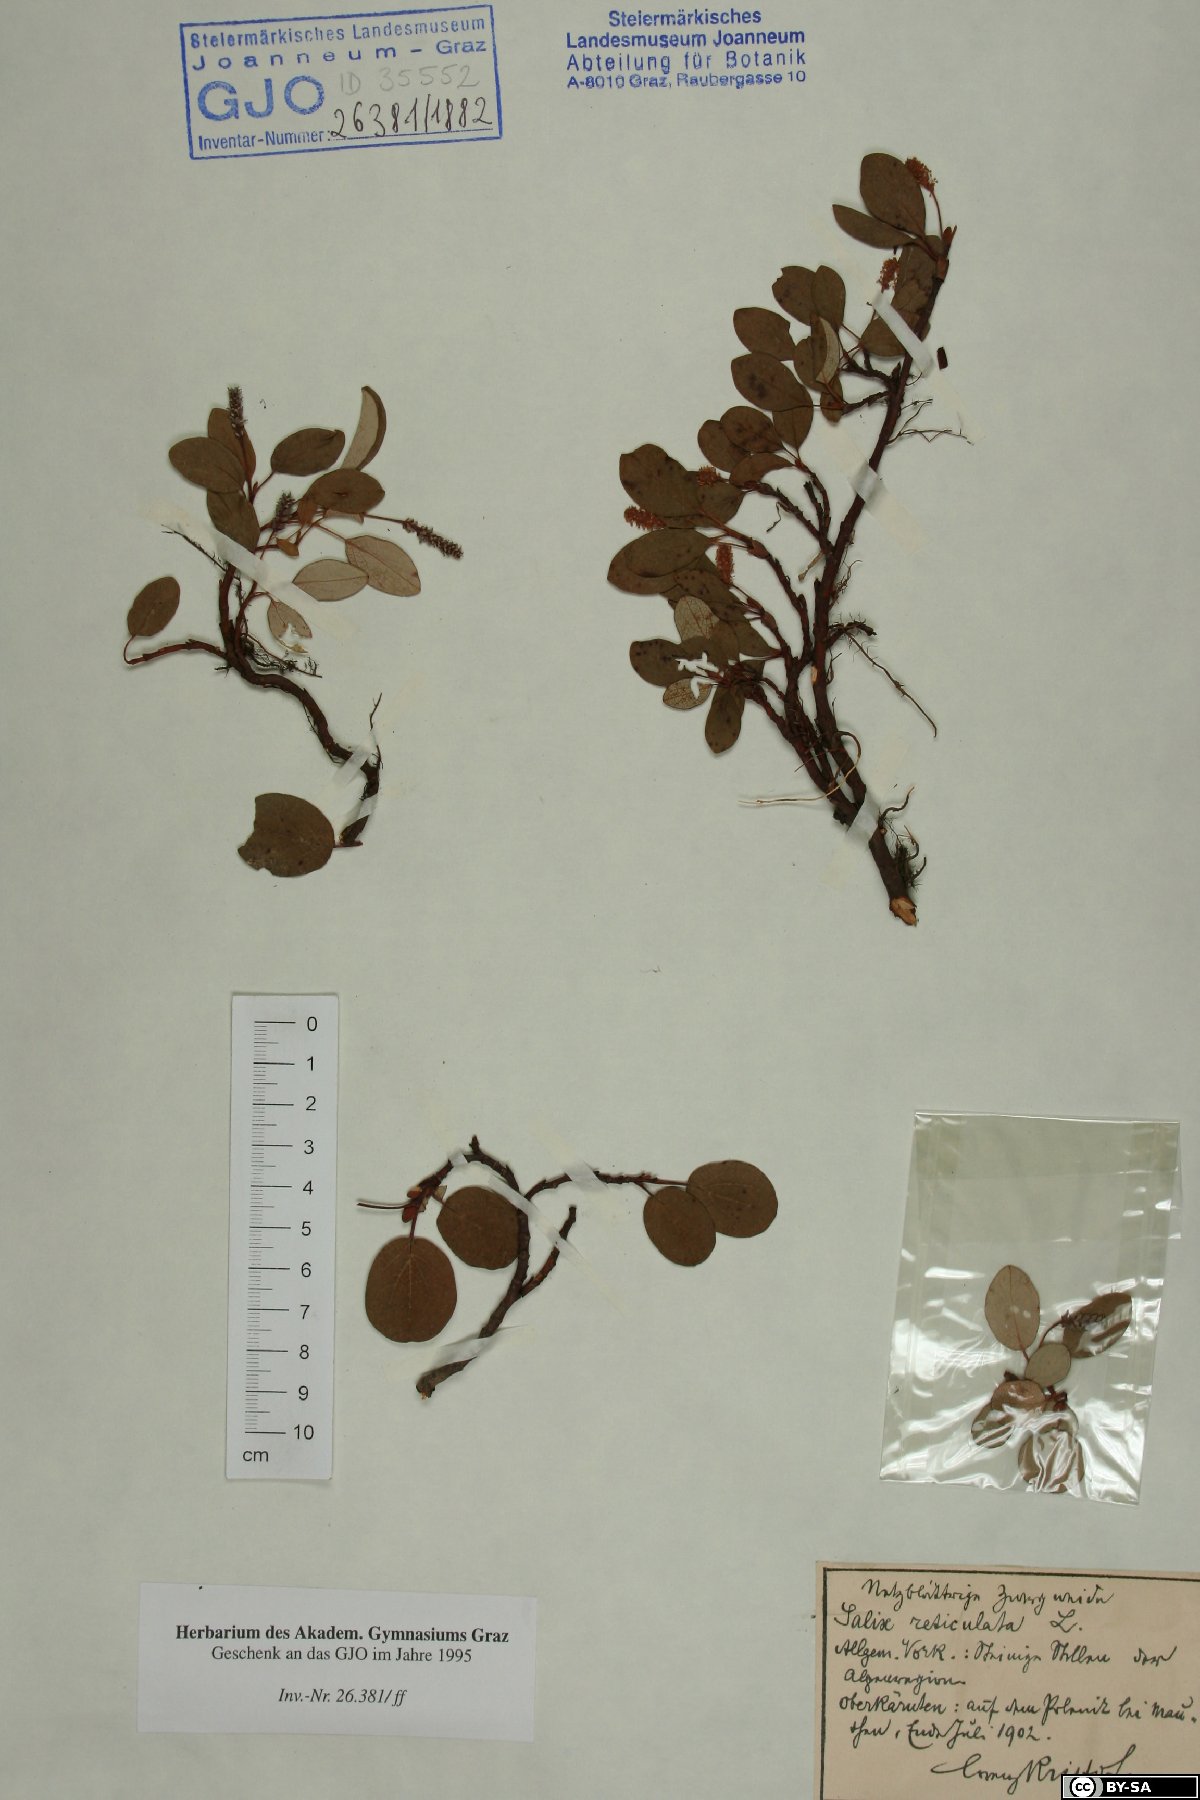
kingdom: Plantae
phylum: Tracheophyta
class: Magnoliopsida
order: Malpighiales
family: Salicaceae
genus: Salix
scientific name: Salix reticulata
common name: Net-leaved willow
